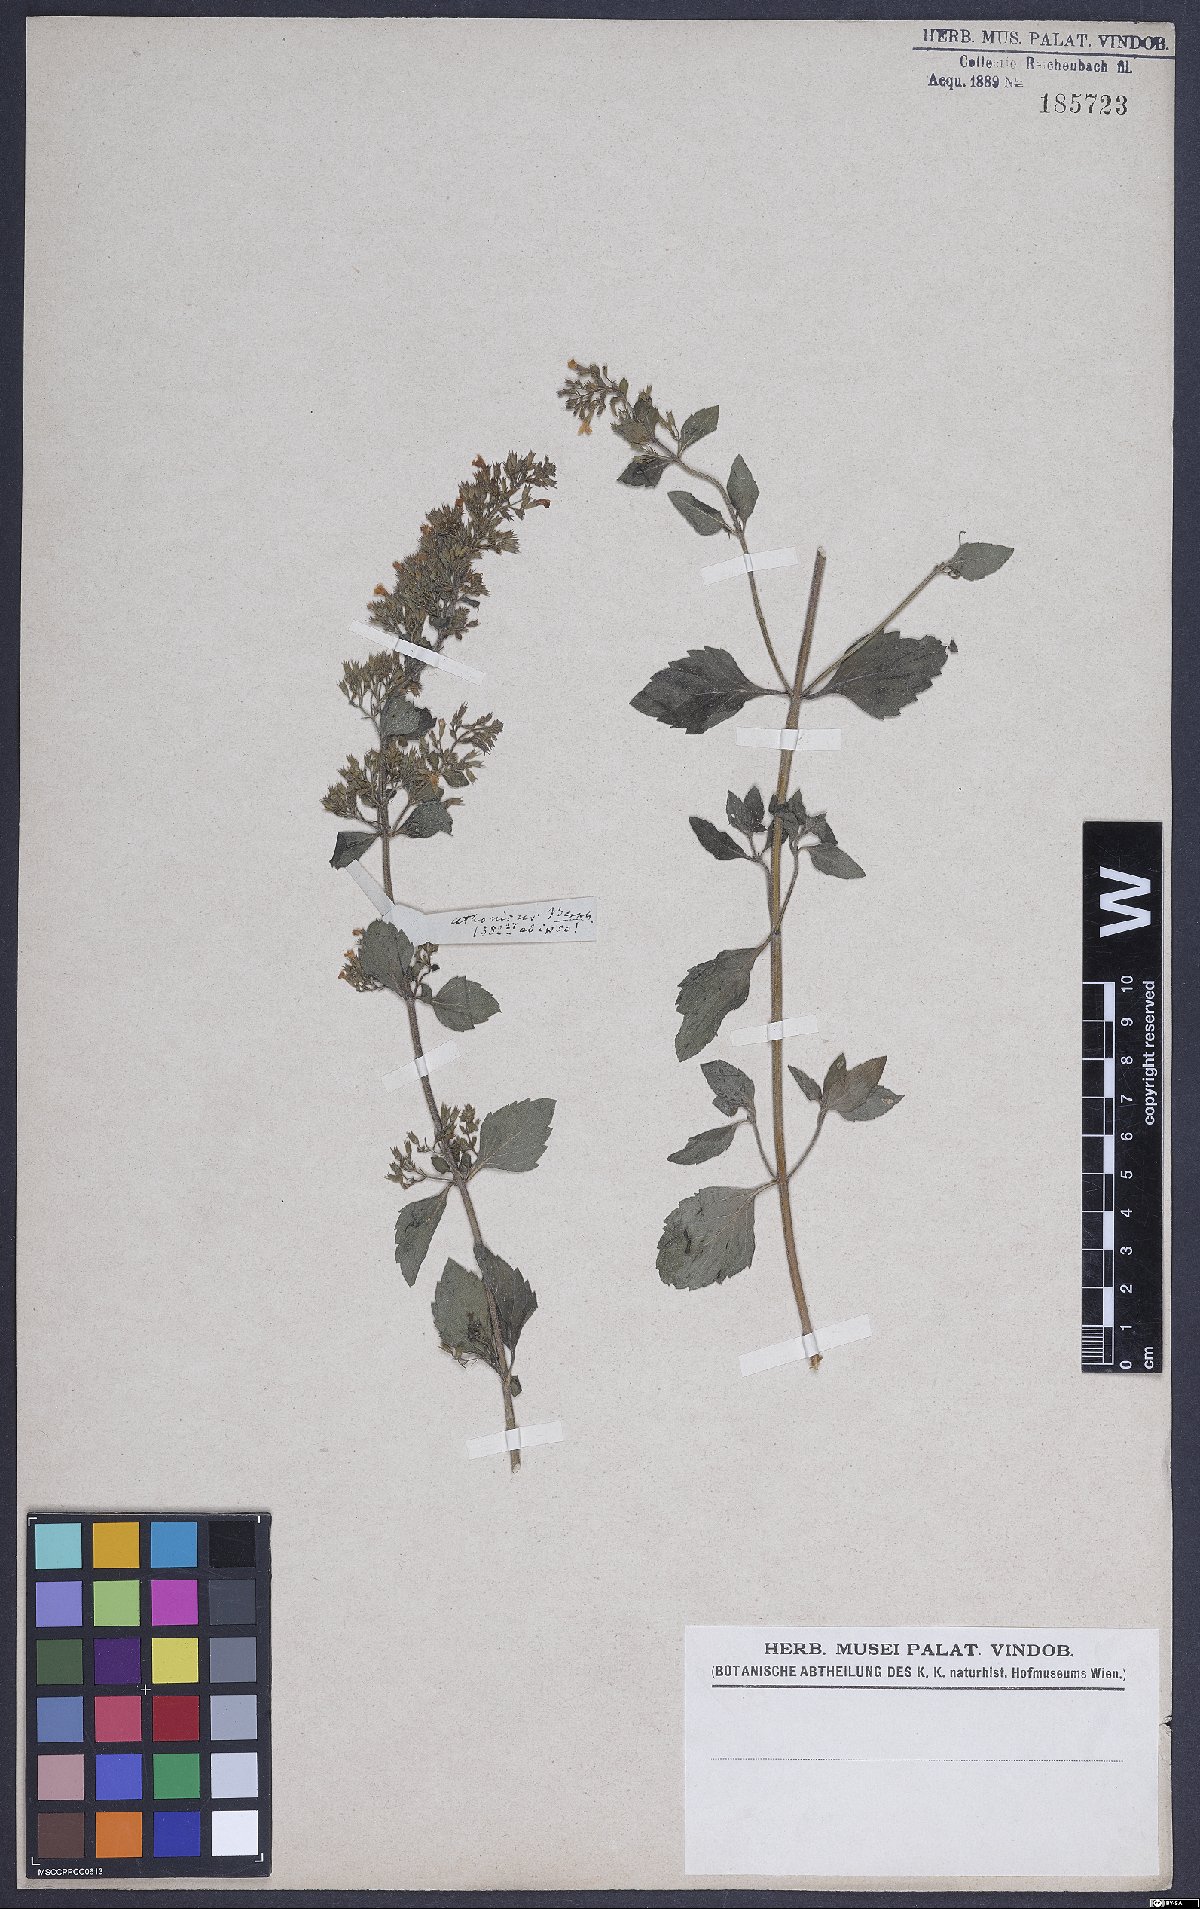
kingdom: Plantae
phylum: Tracheophyta
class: Magnoliopsida
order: Lamiales
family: Lamiaceae
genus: Calamintha
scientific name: Calamintha
